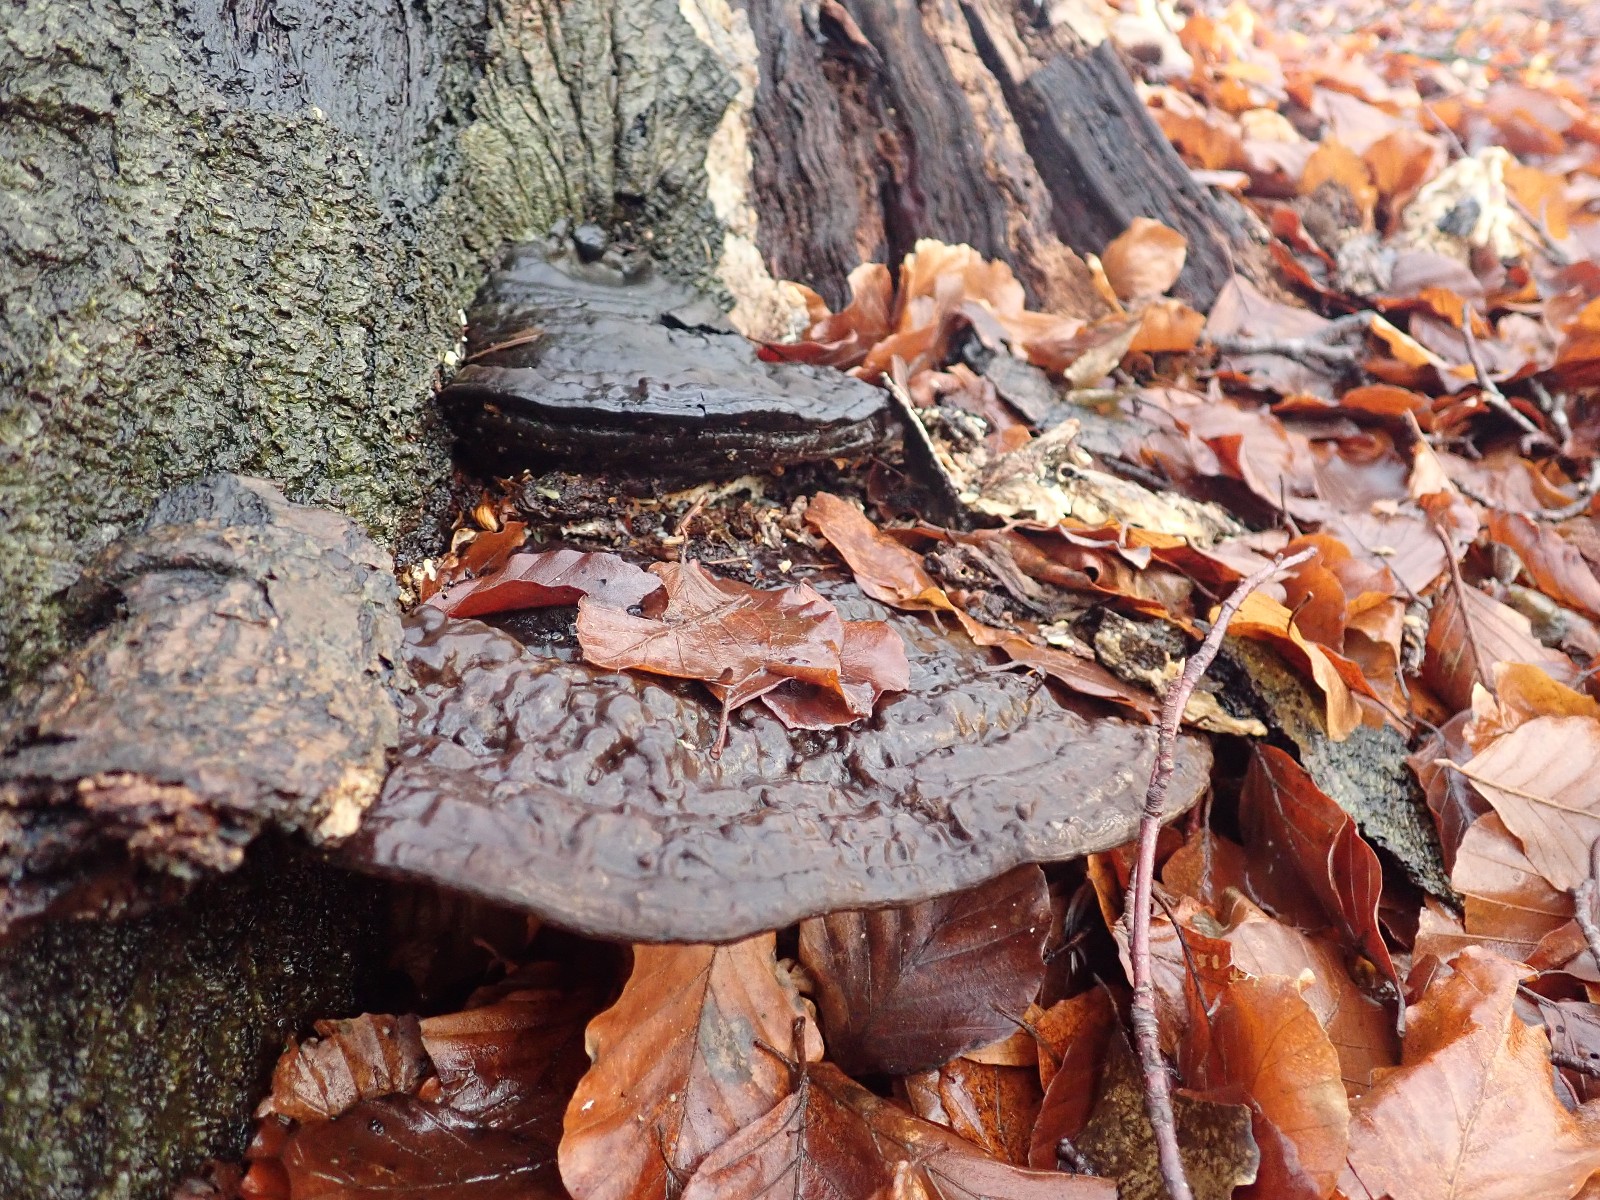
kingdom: Fungi
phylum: Basidiomycota
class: Agaricomycetes
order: Polyporales
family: Polyporaceae
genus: Ganoderma
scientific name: Ganoderma applanatum
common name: flad lakporesvamp
